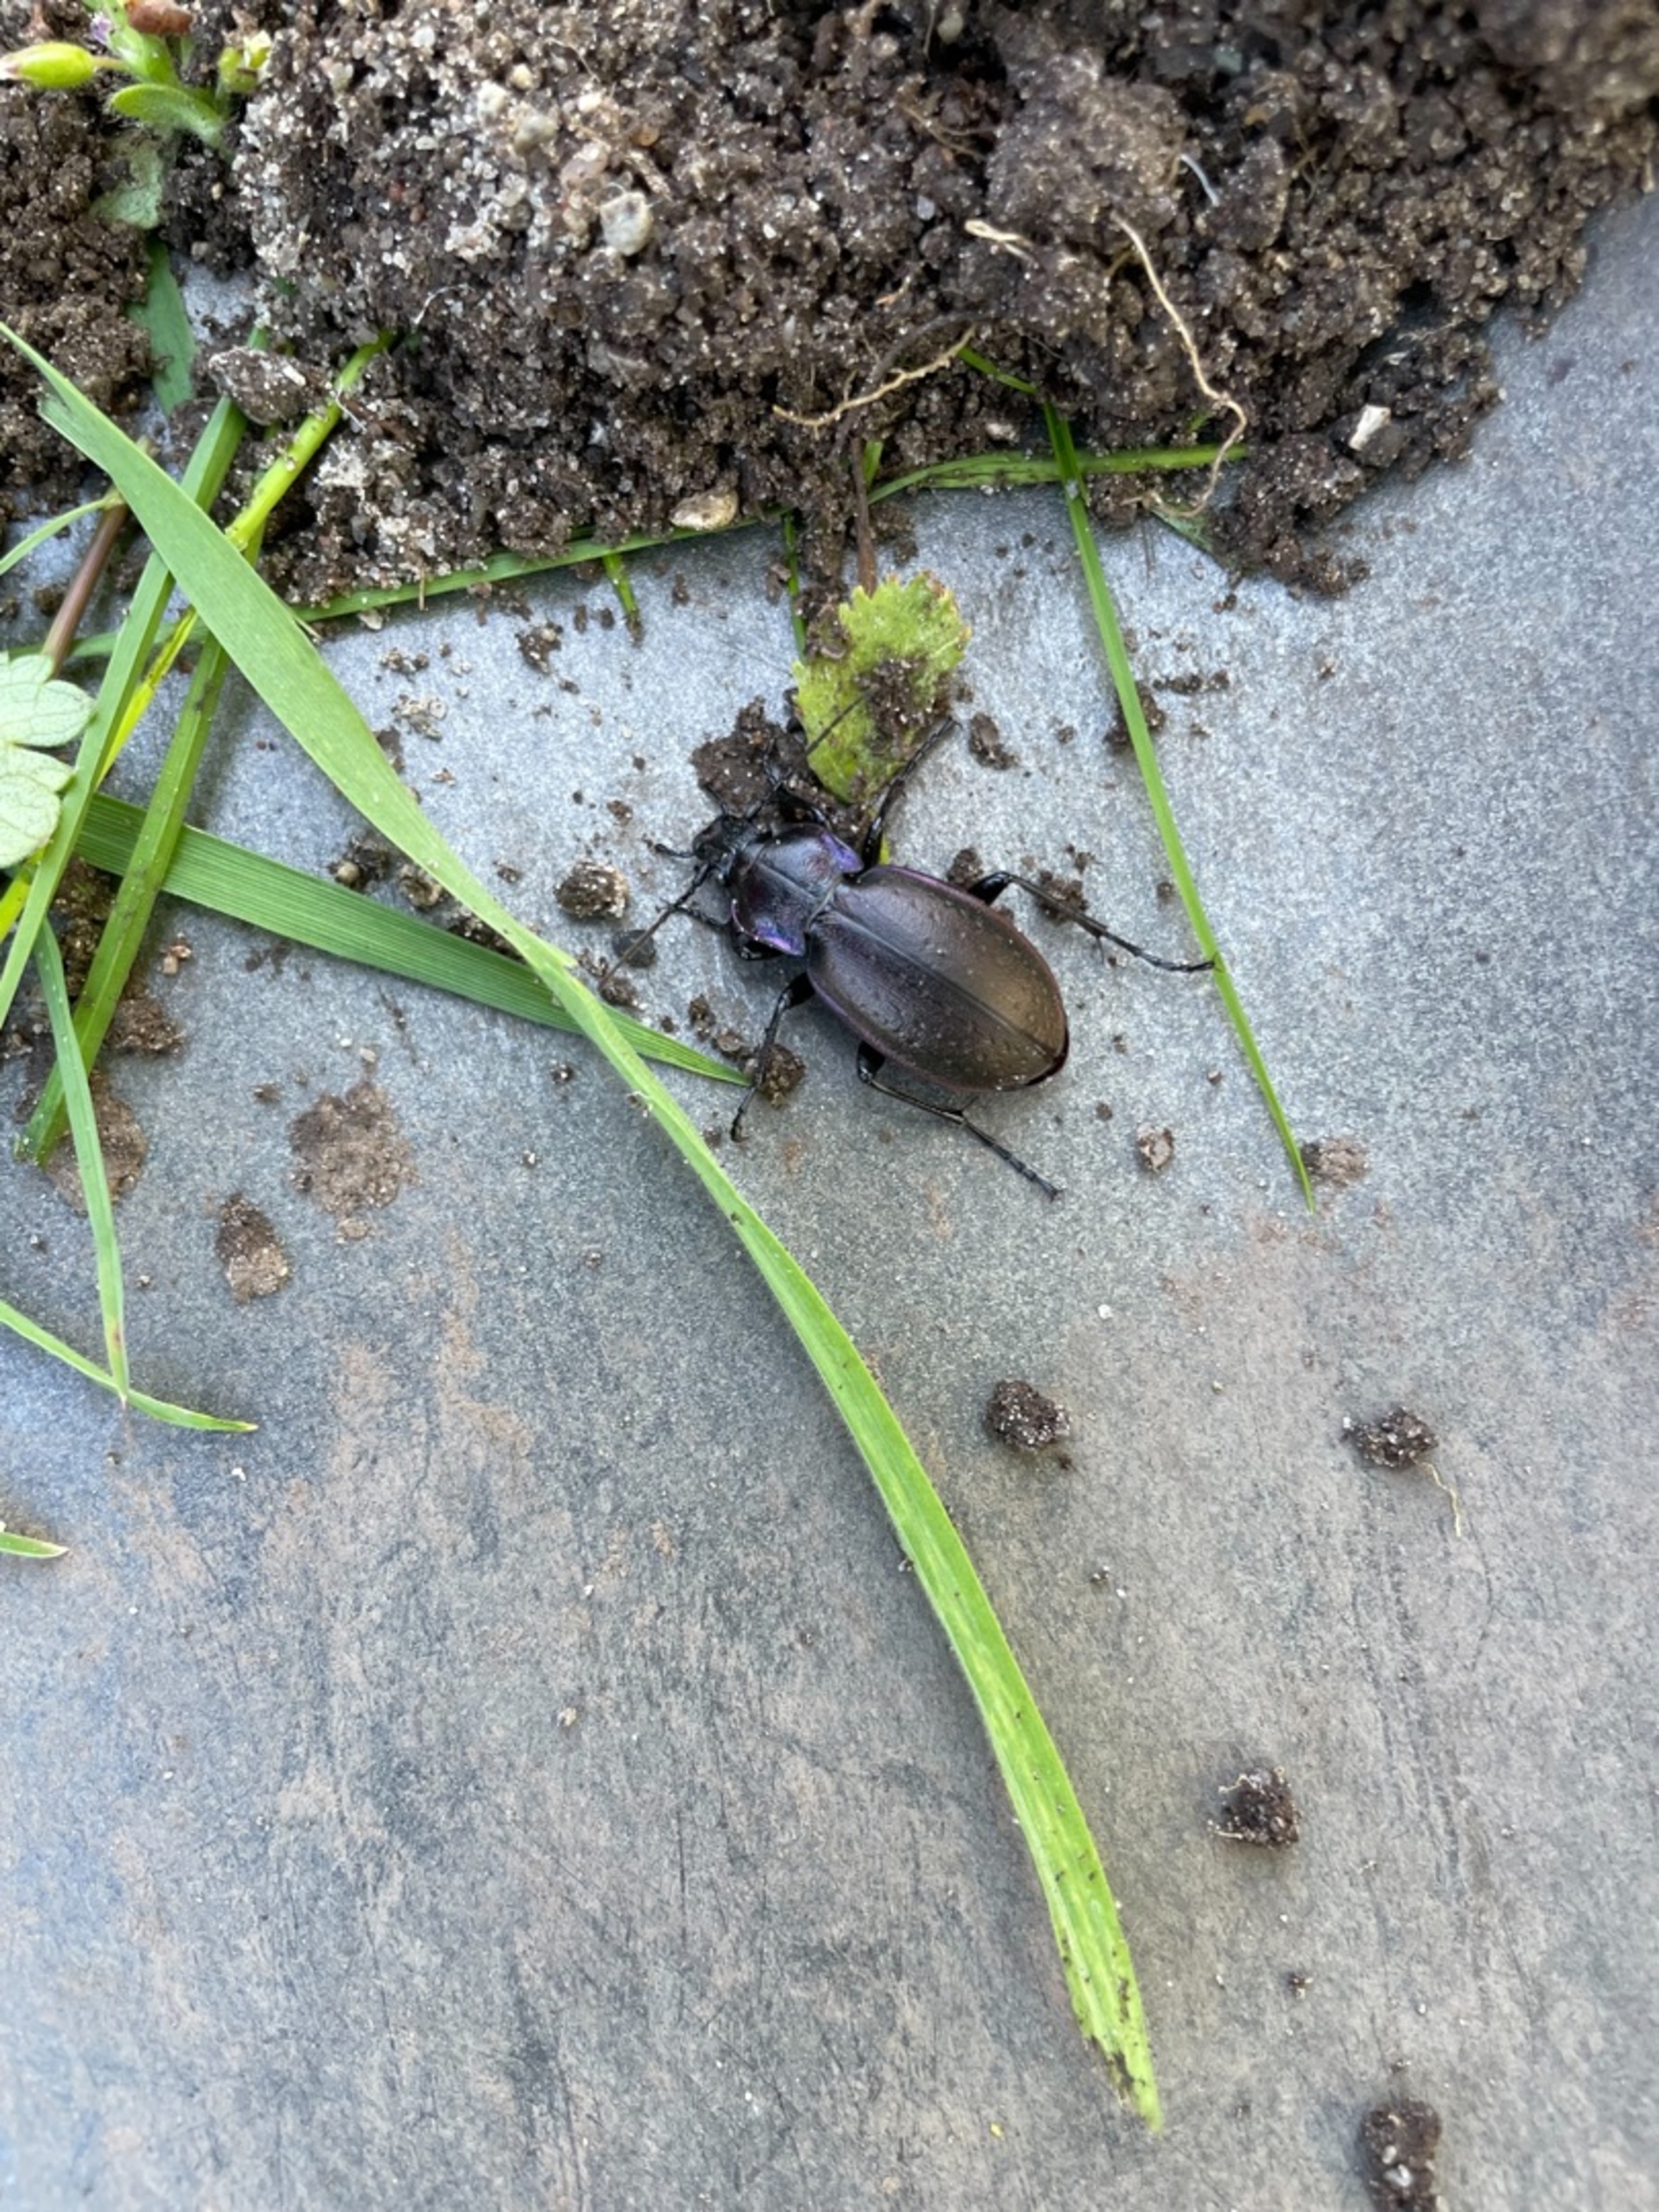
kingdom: Animalia
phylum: Arthropoda
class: Insecta
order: Coleoptera
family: Carabidae
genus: Carabus
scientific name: Carabus nemoralis
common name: Kratløber
